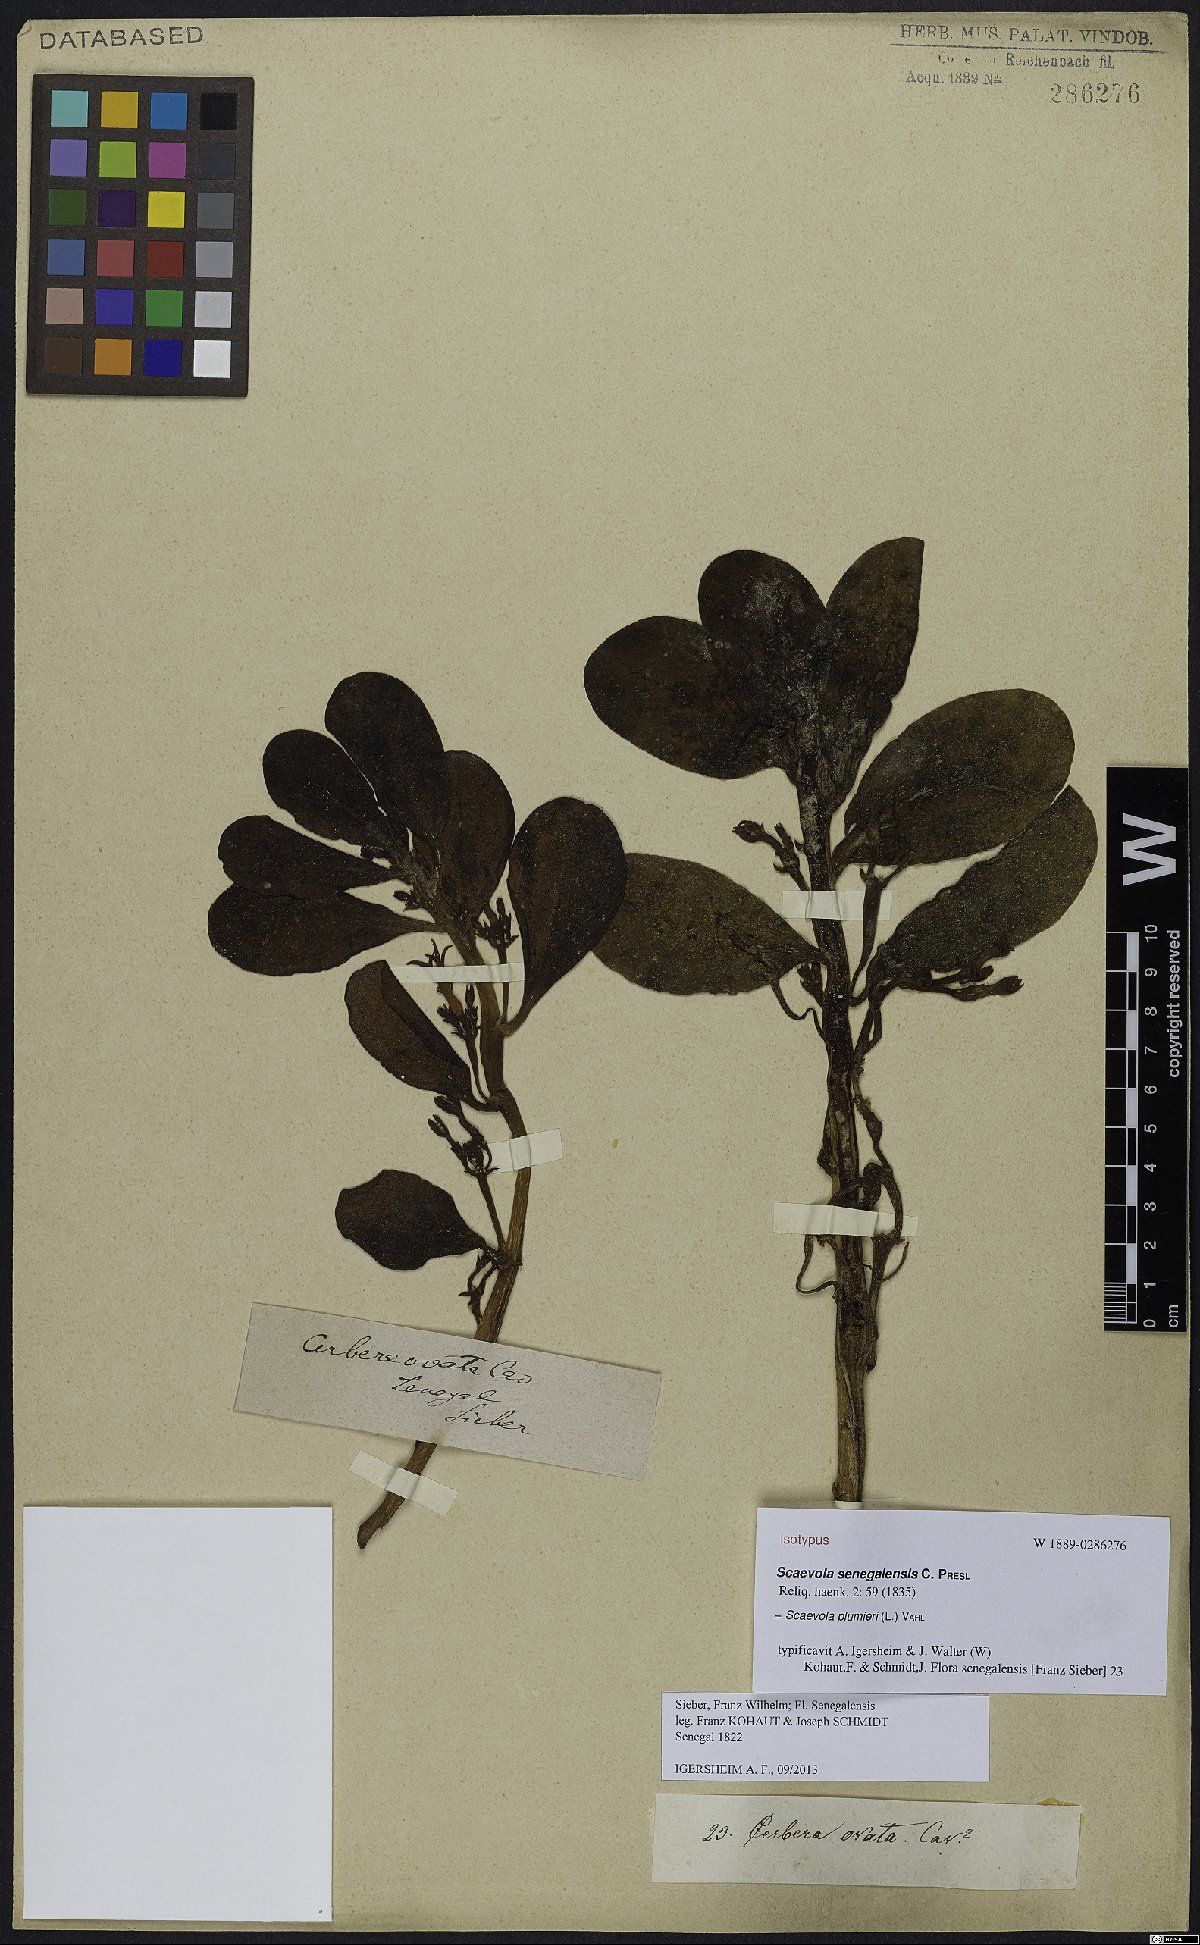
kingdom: Plantae
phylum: Tracheophyta
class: Magnoliopsida
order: Asterales
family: Goodeniaceae
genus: Scaevola
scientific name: Scaevola plumieri
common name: Gull feed
